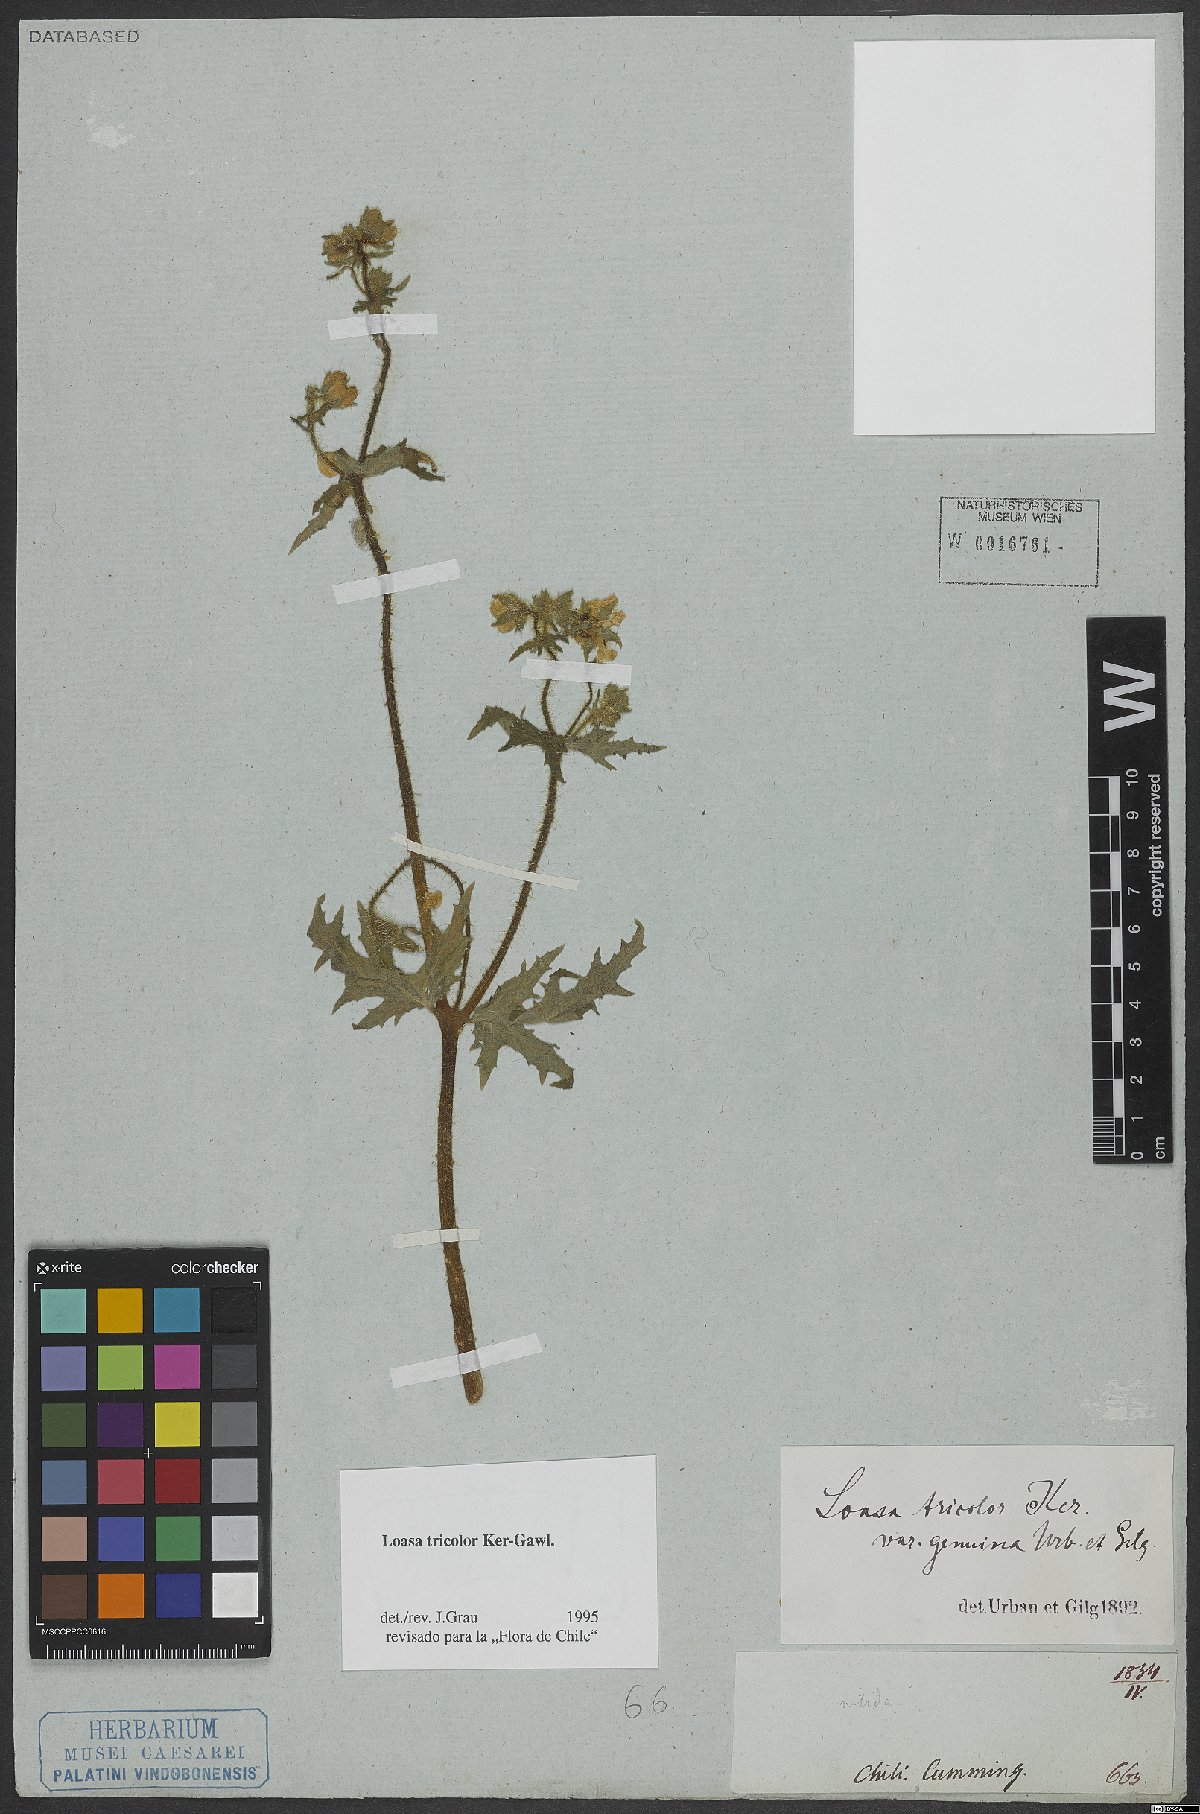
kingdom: Plantae
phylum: Tracheophyta
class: Magnoliopsida
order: Cornales
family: Loasaceae
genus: Loasa
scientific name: Loasa tricolor
